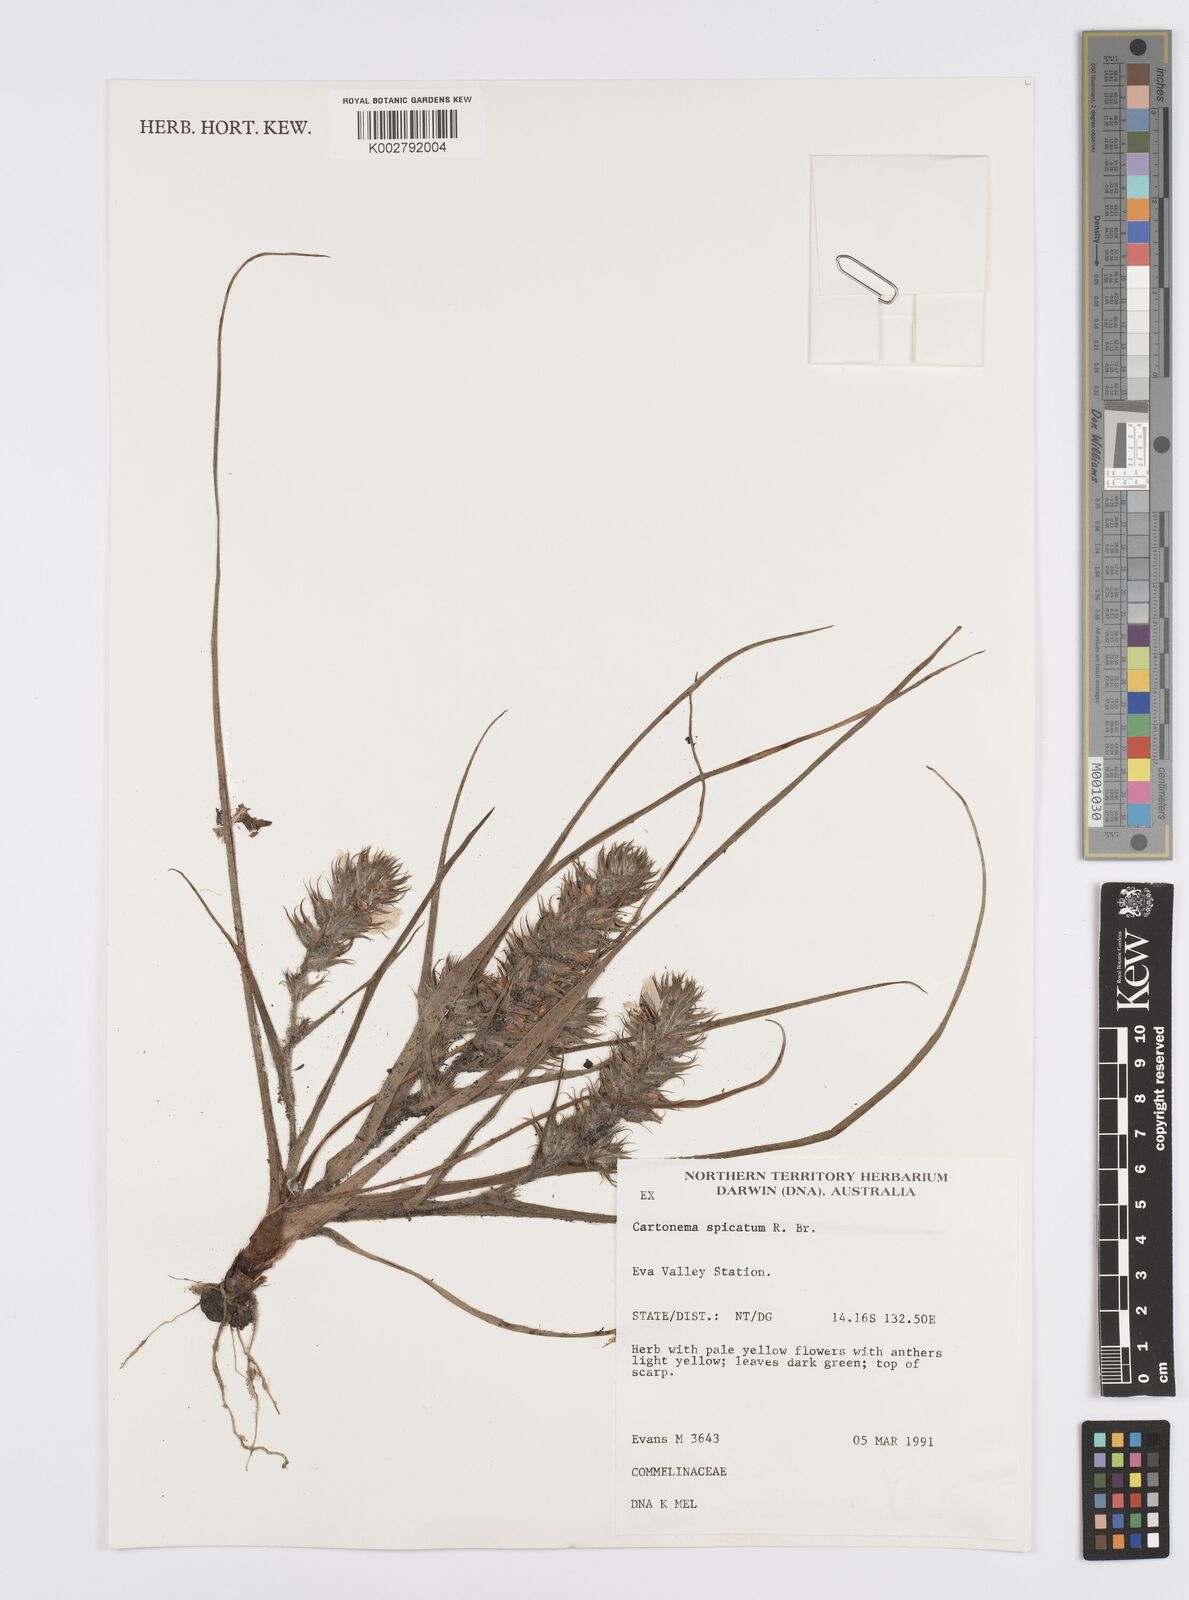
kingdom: Plantae
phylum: Tracheophyta
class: Liliopsida
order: Commelinales
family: Commelinaceae
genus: Cartonema
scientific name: Cartonema spicatum
